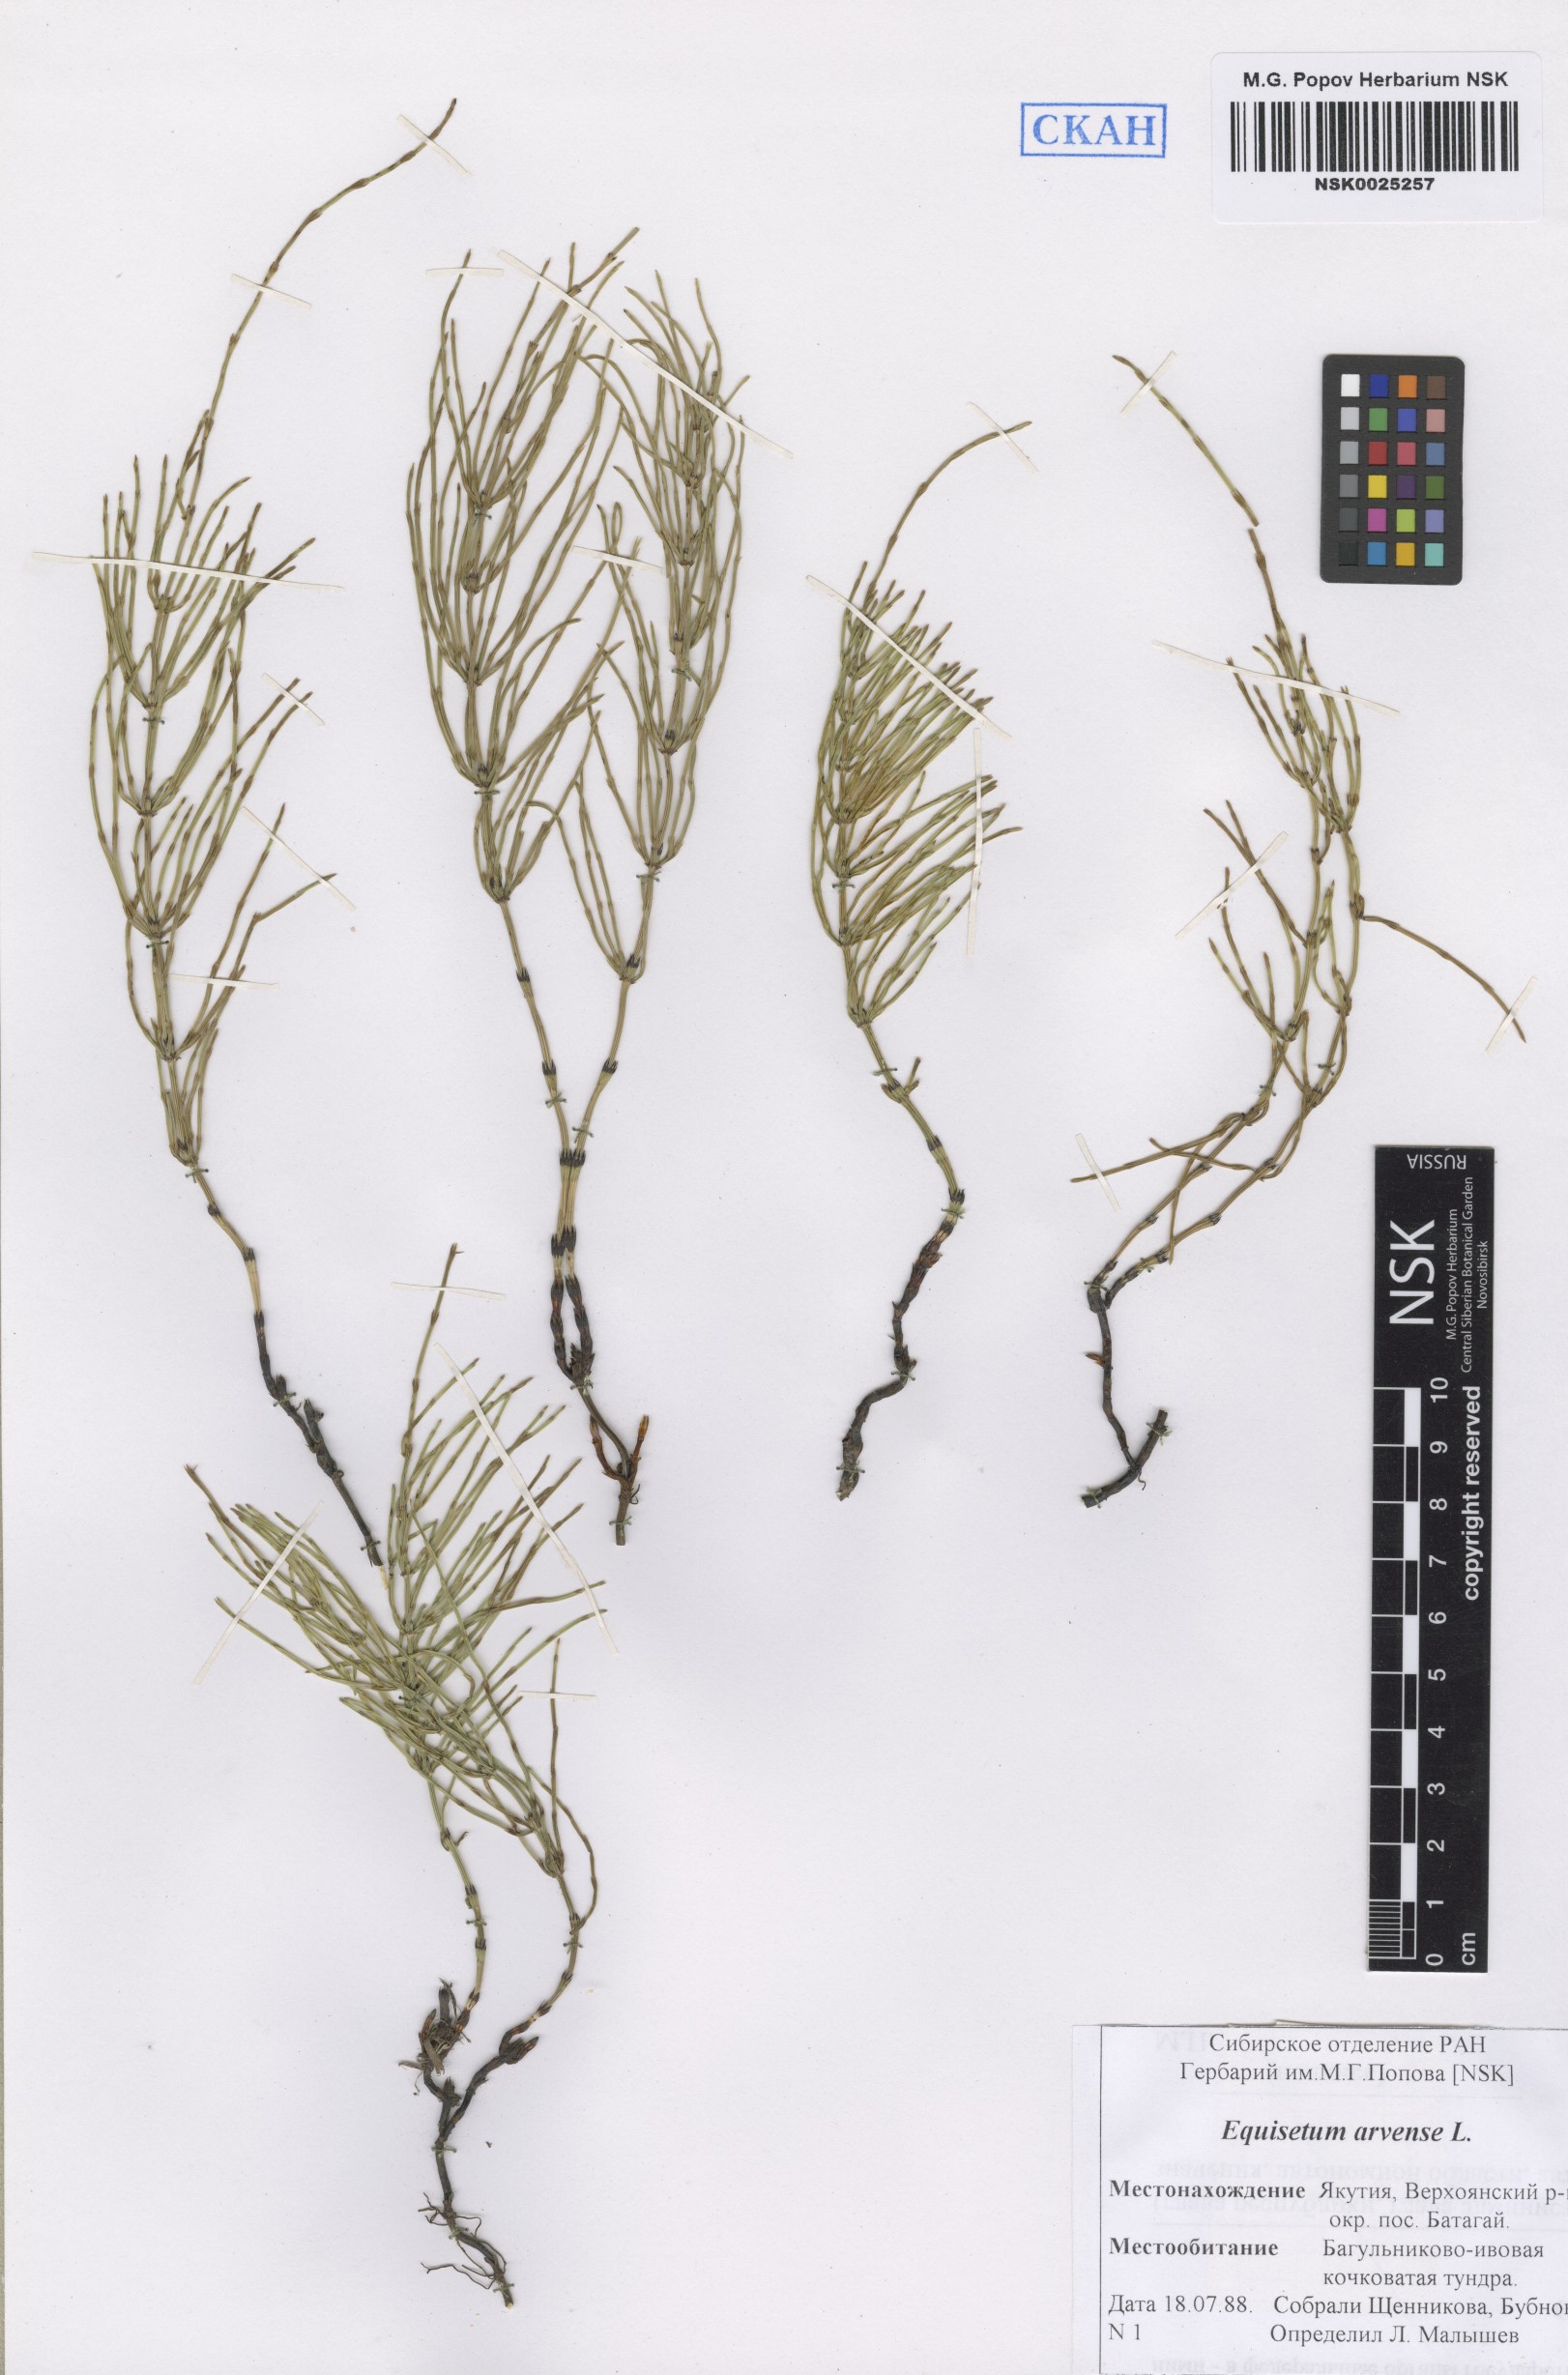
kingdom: Plantae
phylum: Tracheophyta
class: Polypodiopsida
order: Equisetales
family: Equisetaceae
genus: Equisetum
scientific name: Equisetum arvense
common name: Field horsetail
